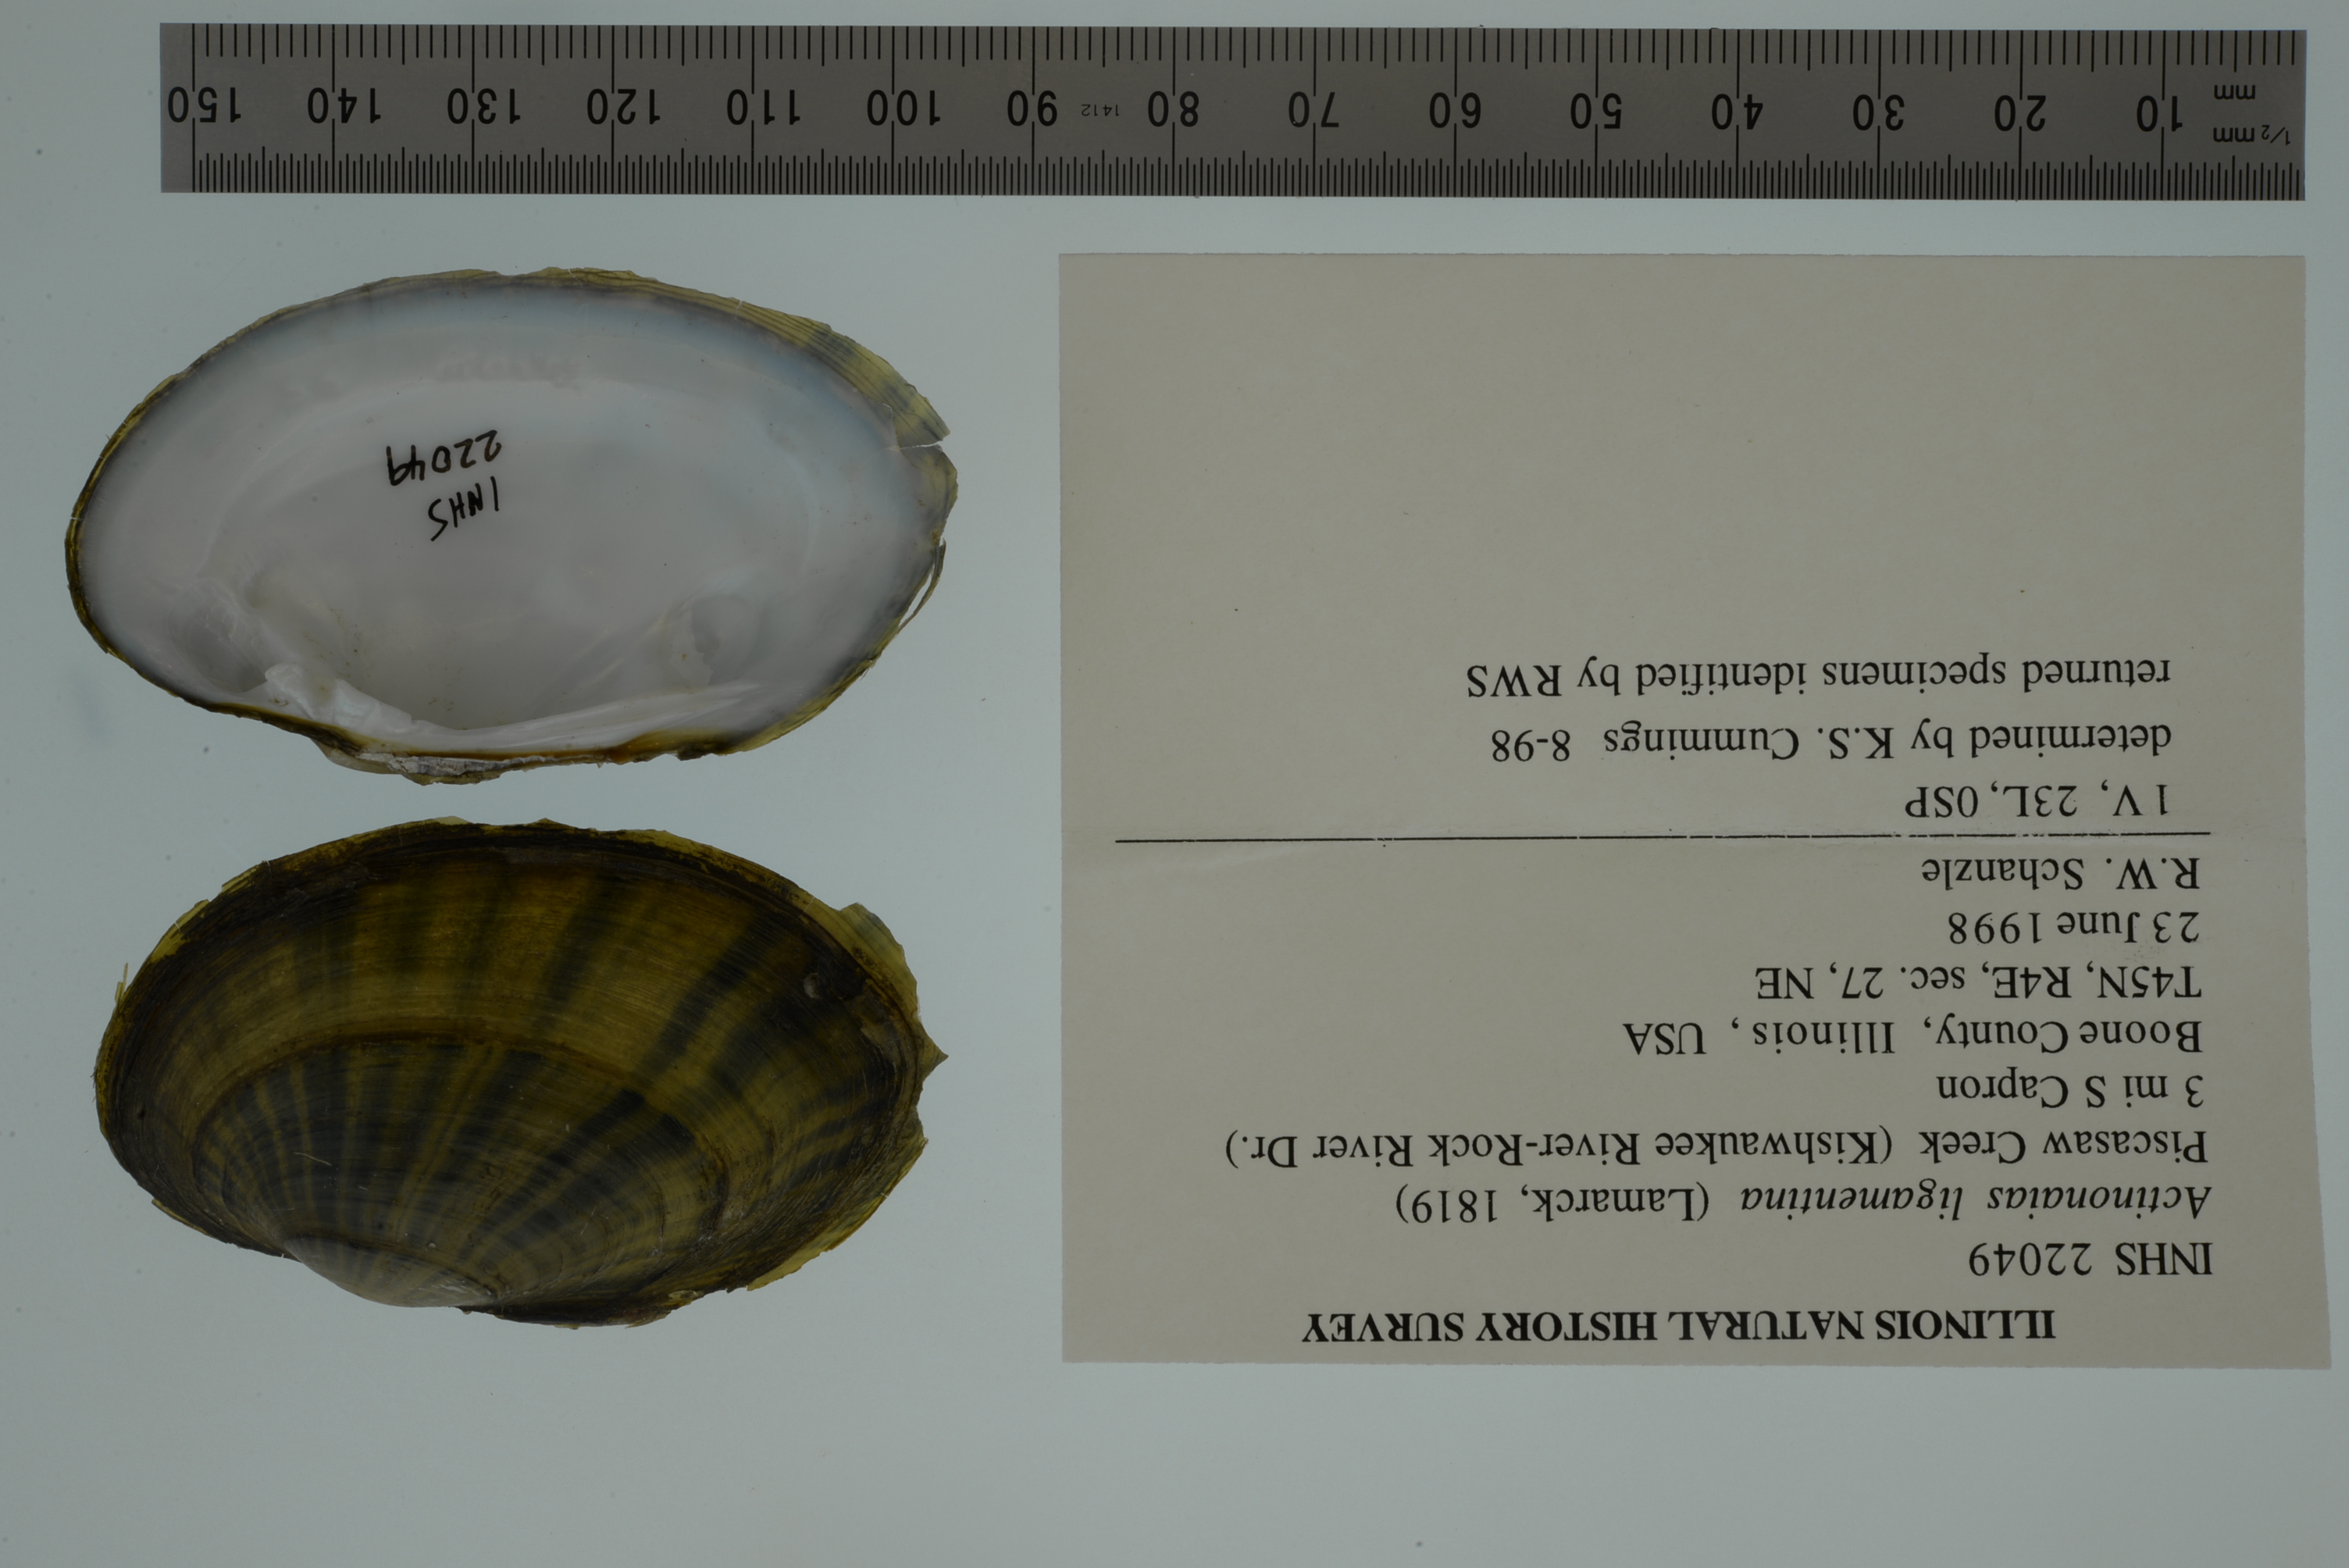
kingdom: Animalia
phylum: Mollusca
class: Bivalvia
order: Unionida
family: Unionidae
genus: Ortmanniana
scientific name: Ortmanniana ligamentina
